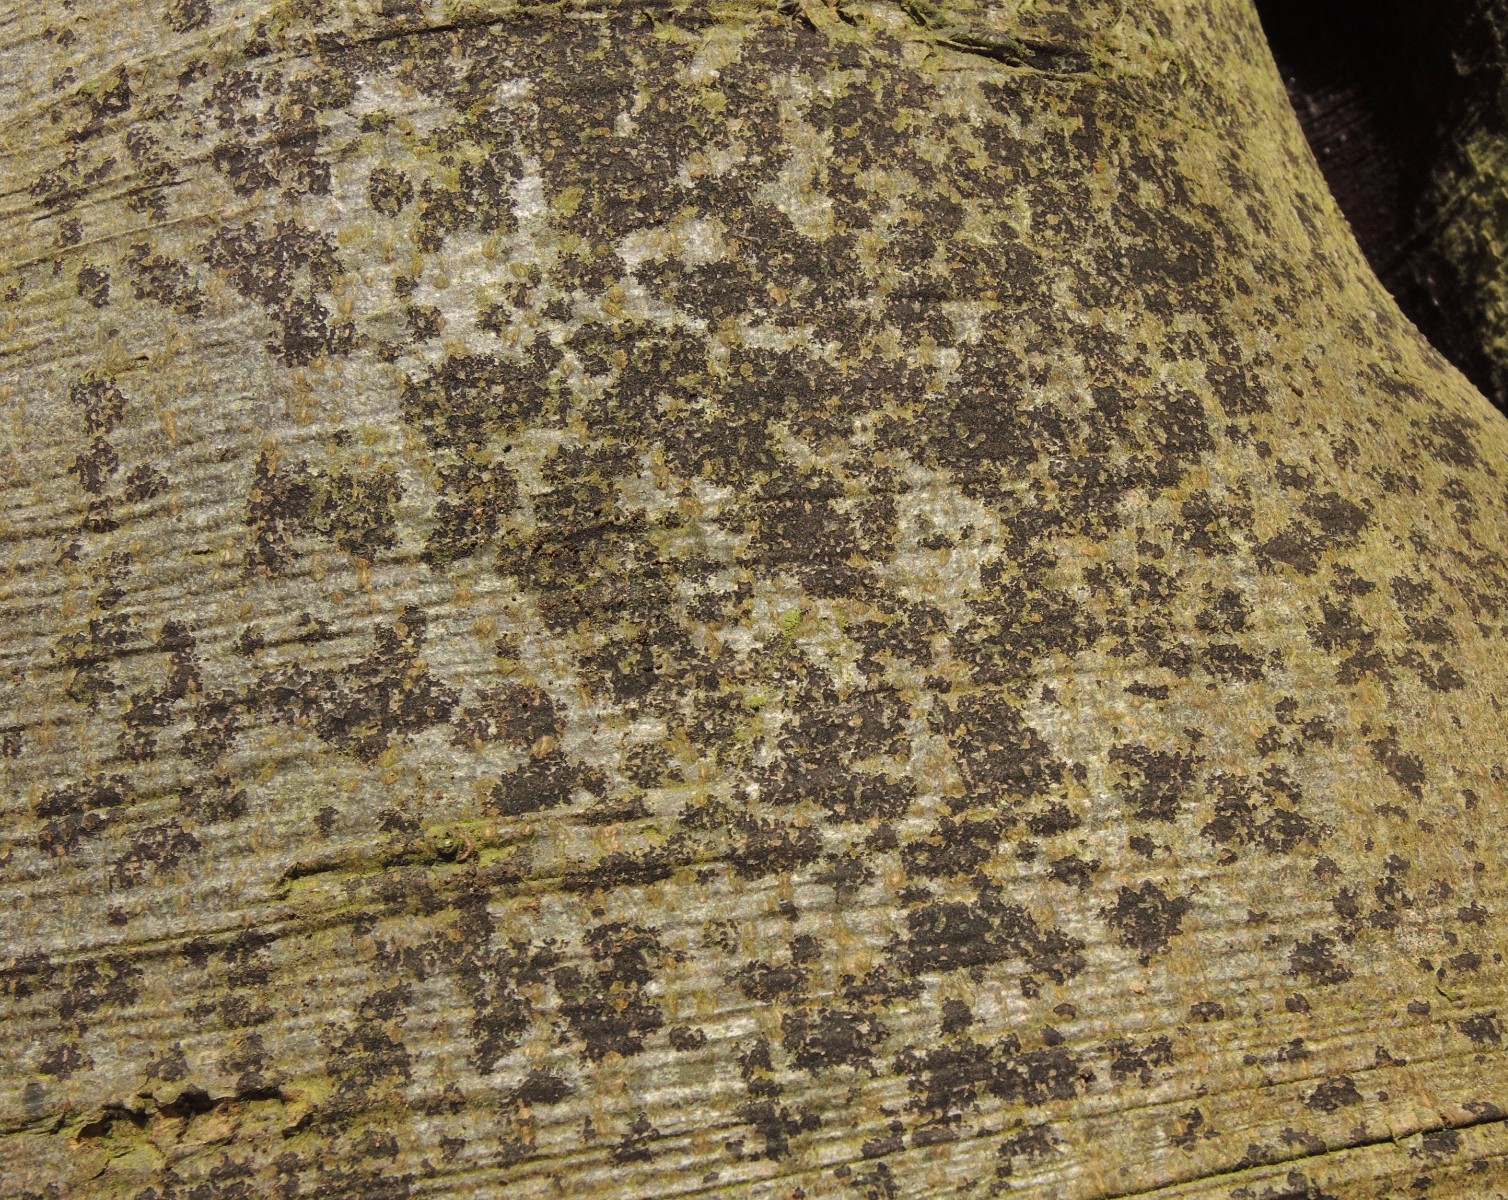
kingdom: Fungi
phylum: Ascomycota
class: Leotiomycetes
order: Rhytismatales
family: Ascodichaenaceae
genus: Ascodichaena
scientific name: Ascodichaena rugosa
